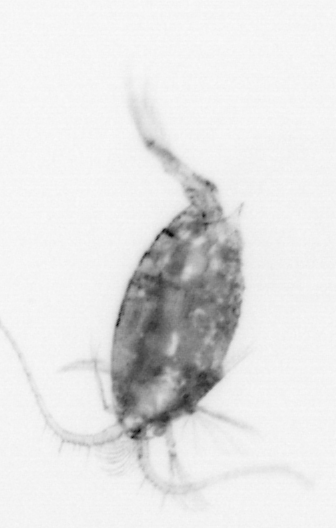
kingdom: Animalia
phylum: Arthropoda
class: Copepoda
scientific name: Copepoda
